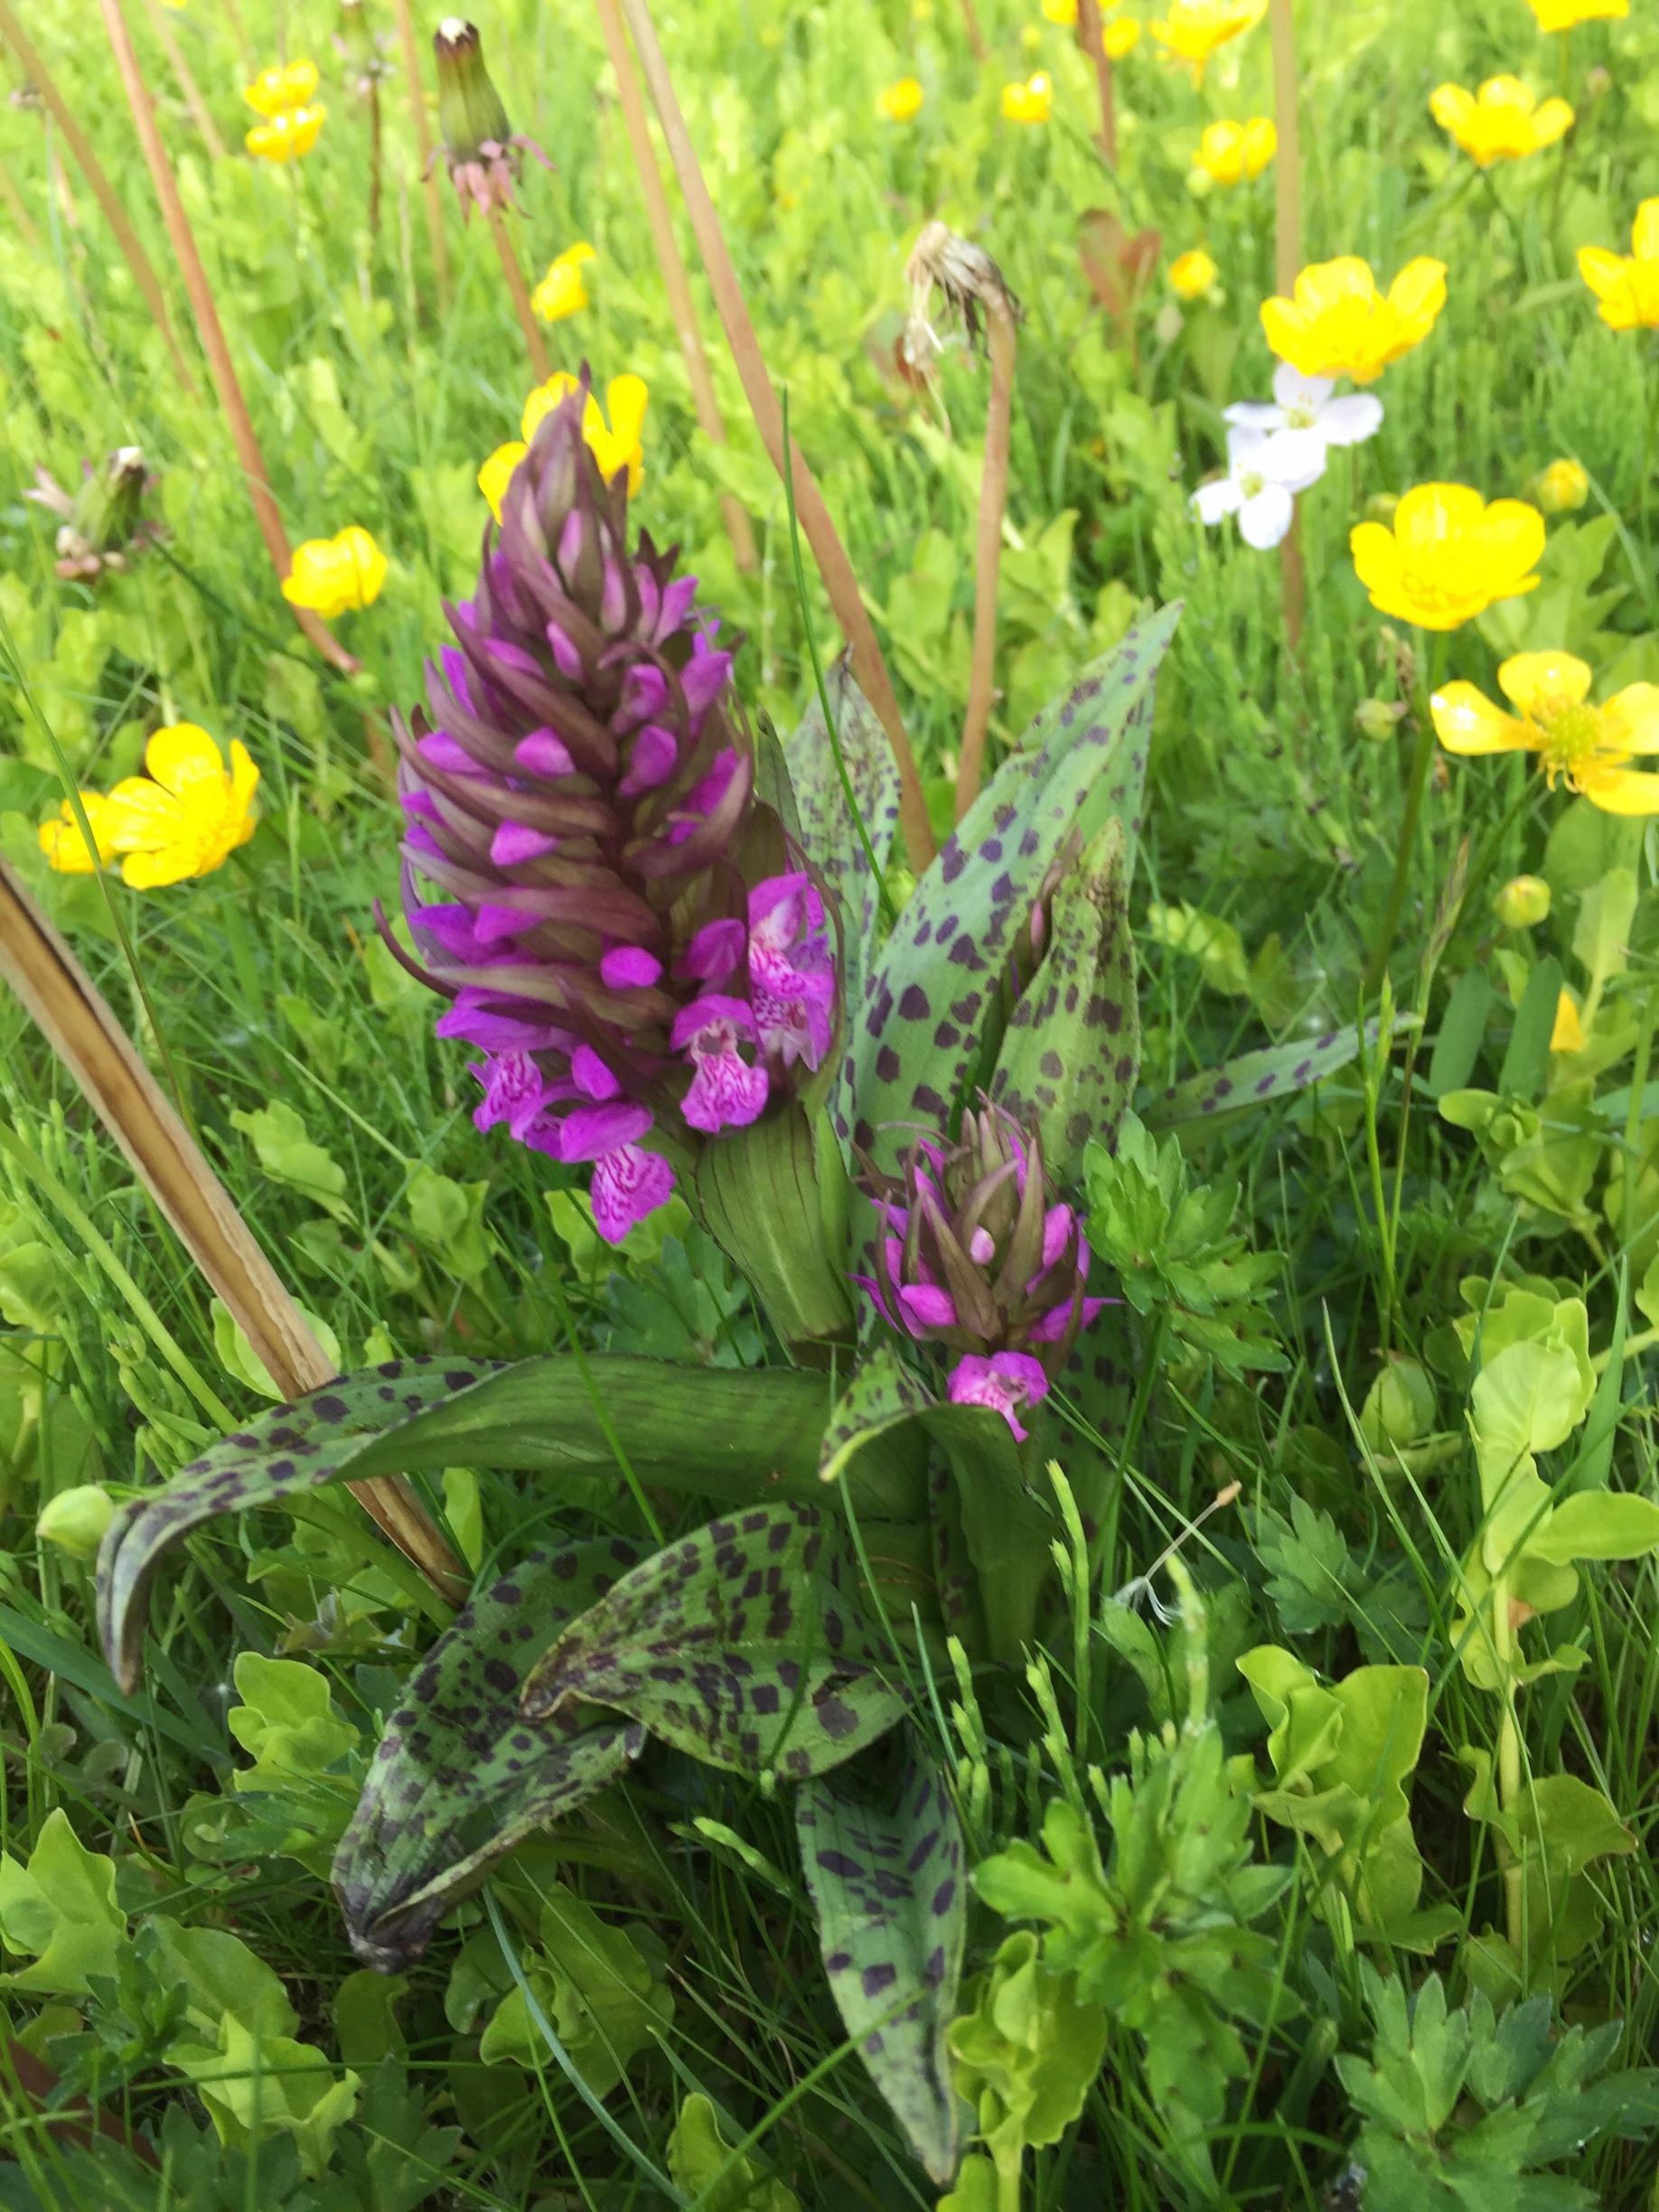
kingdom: Plantae
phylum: Tracheophyta
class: Liliopsida
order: Asparagales
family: Orchidaceae
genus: Dactylorhiza
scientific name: Dactylorhiza majalis
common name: Maj-gøgeurt
